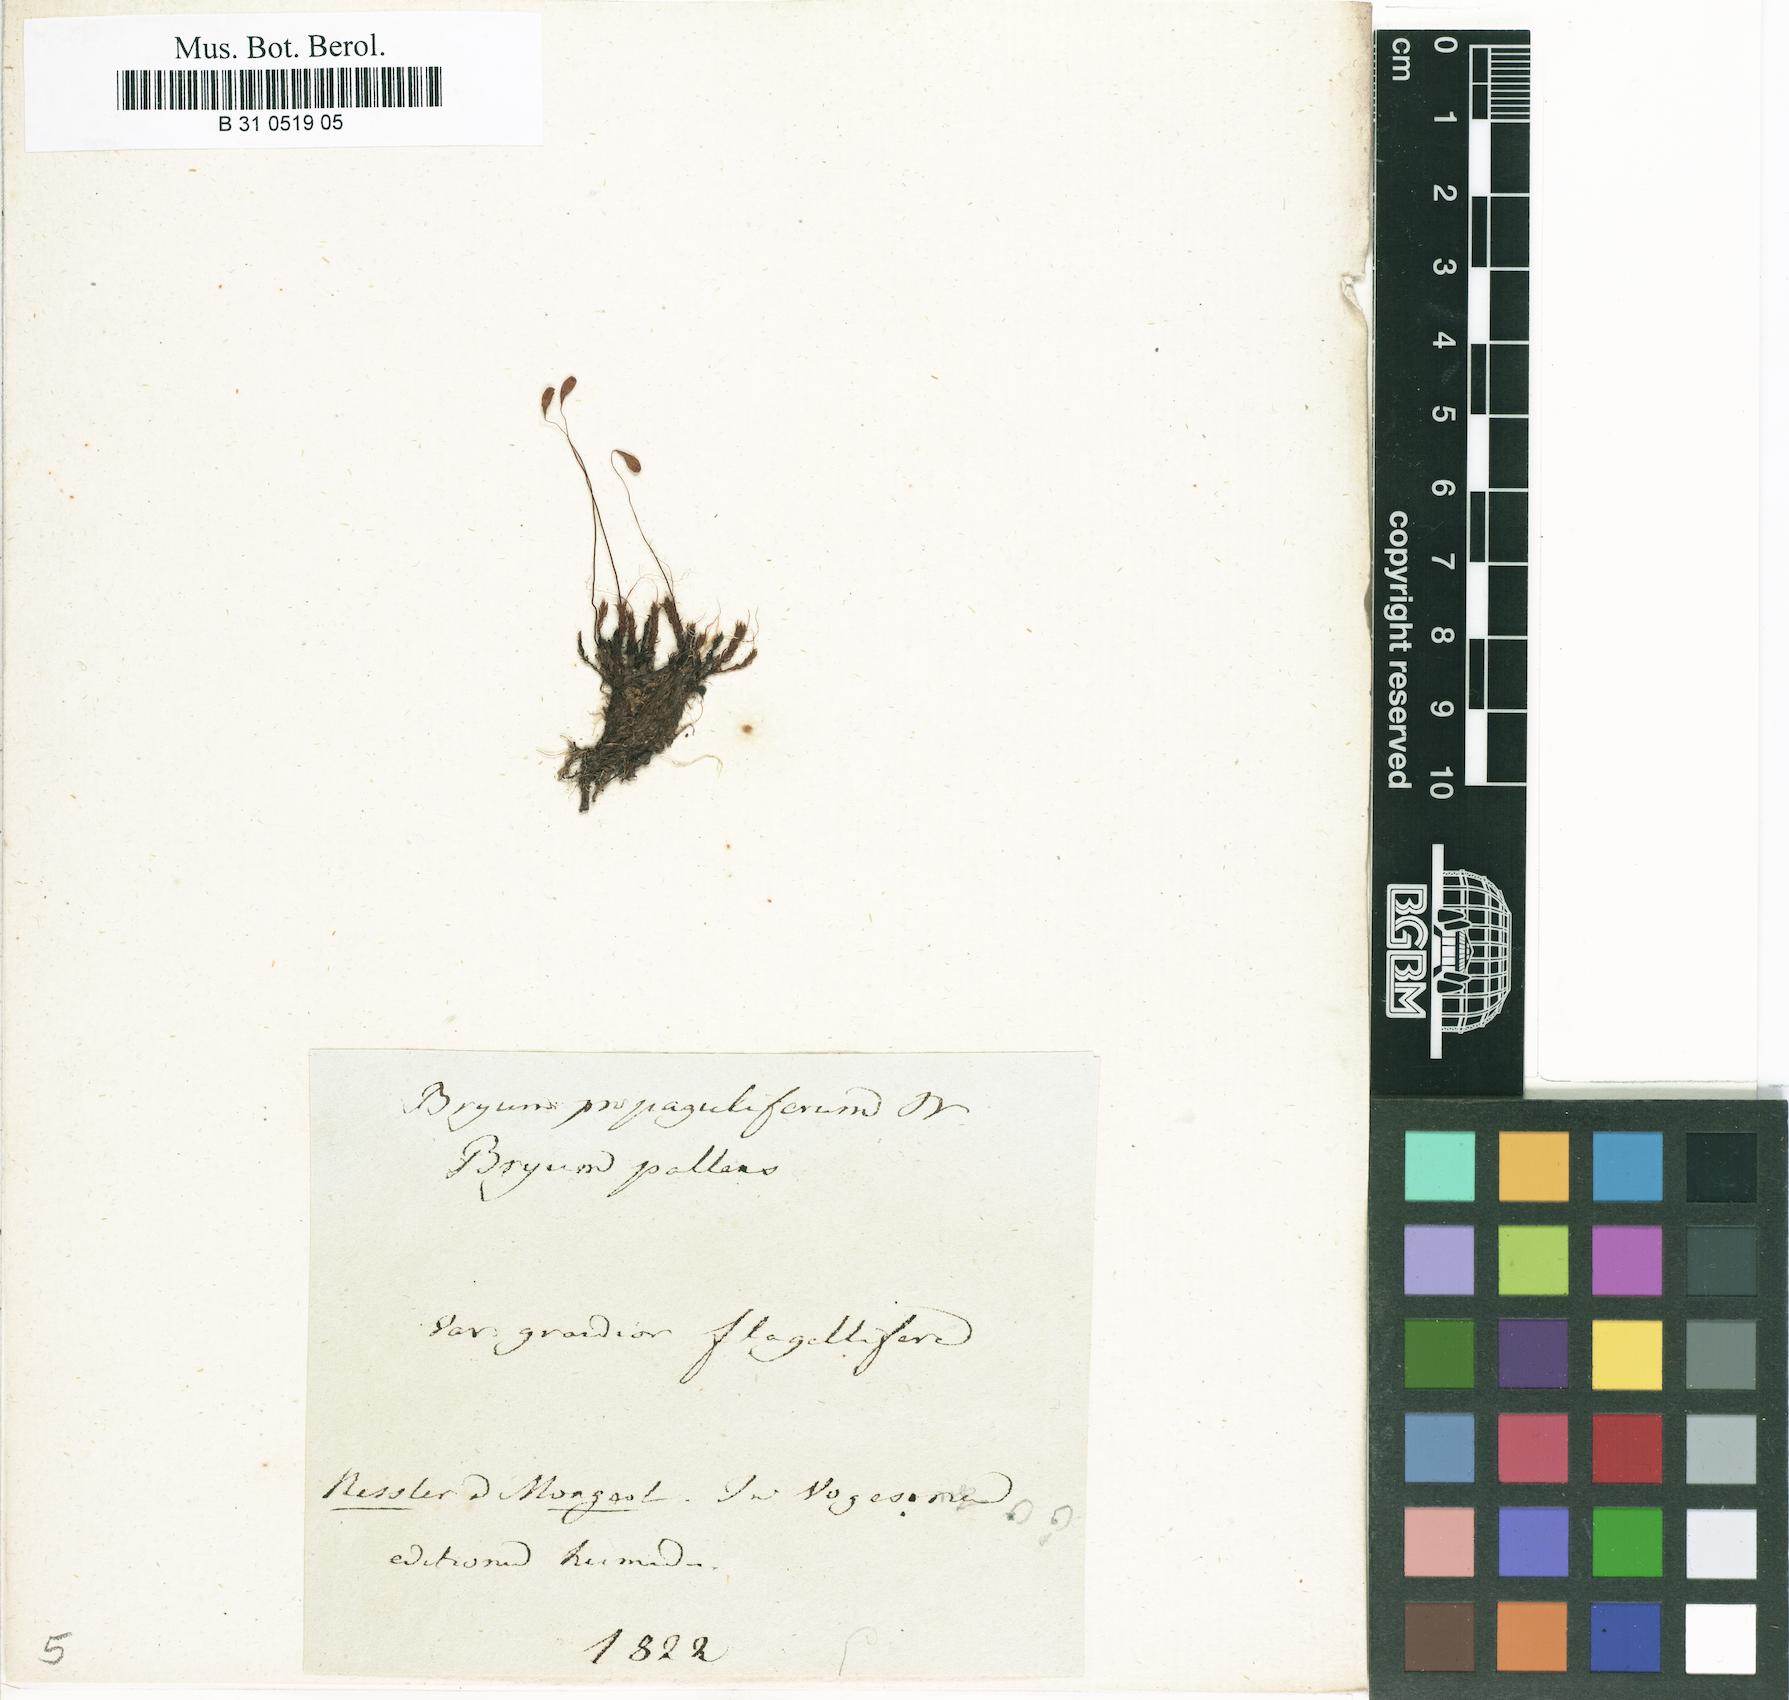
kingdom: Plantae
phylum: Bryophyta
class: Bryopsida
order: Bryales
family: Bryaceae
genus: Ptychostomum
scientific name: Ptychostomum pallens
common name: Pale thread-moss
